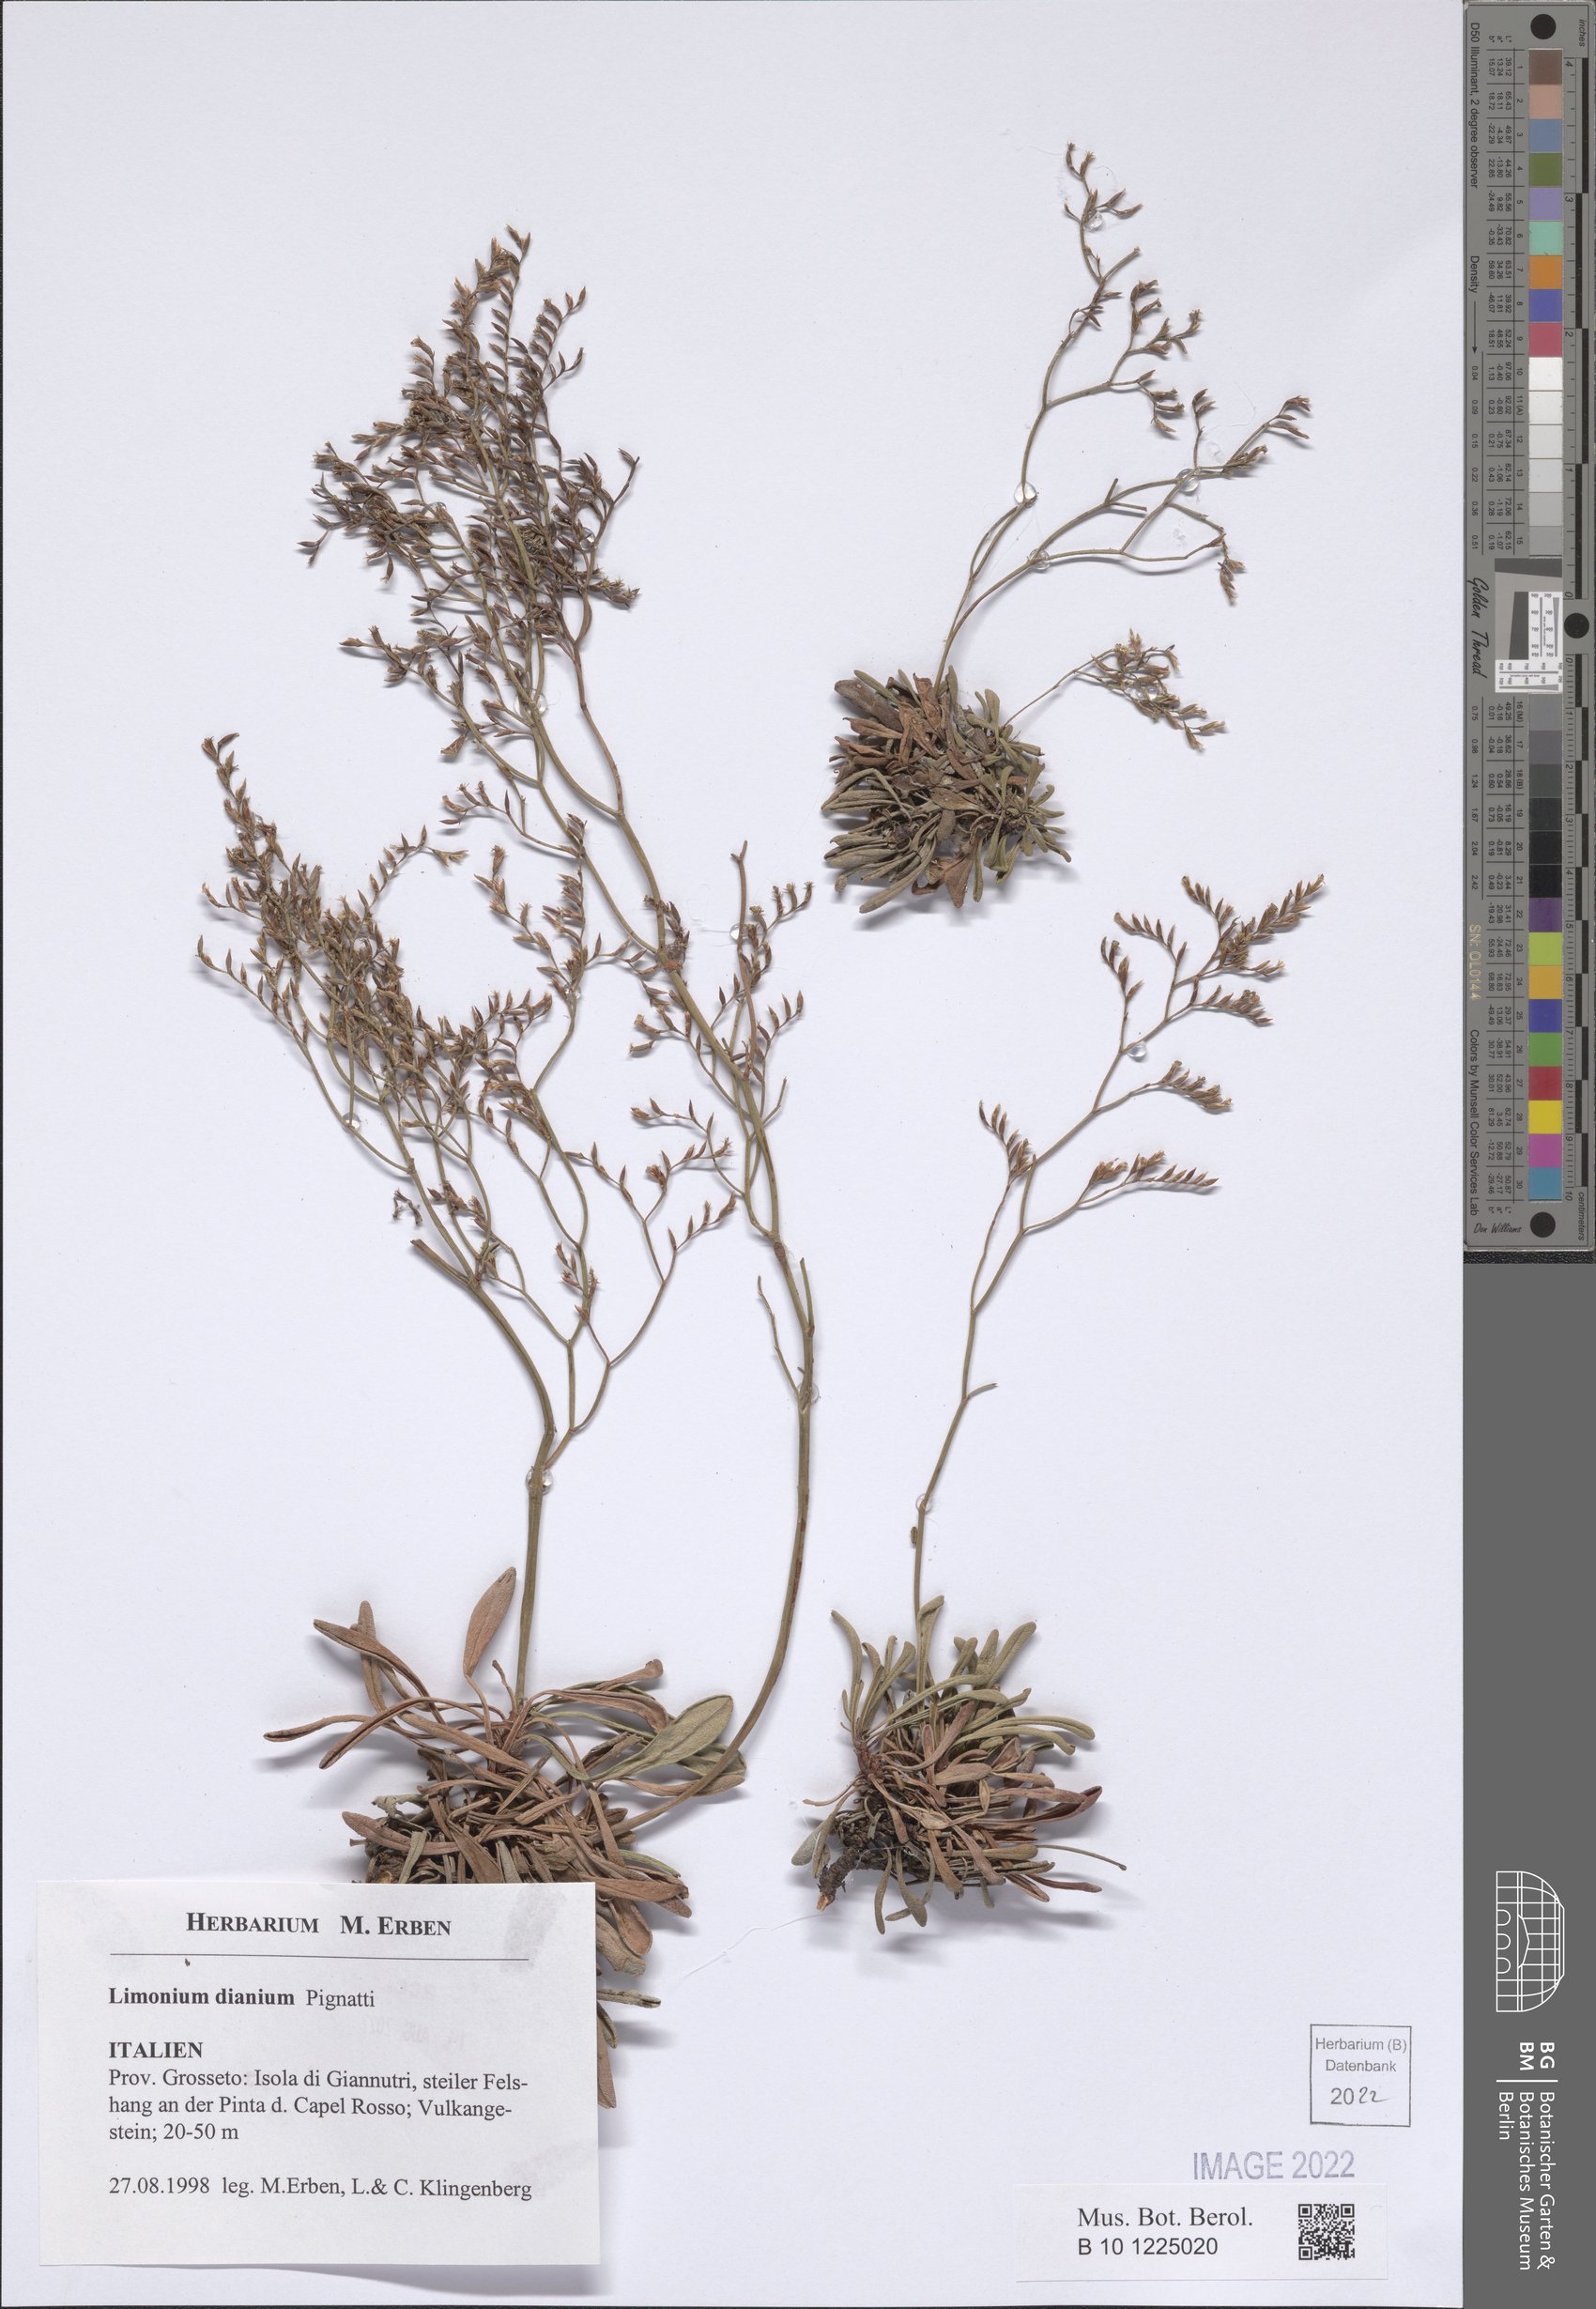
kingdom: Plantae
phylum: Tracheophyta
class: Magnoliopsida
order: Caryophyllales
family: Plumbaginaceae
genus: Limonium
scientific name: Limonium dianium
